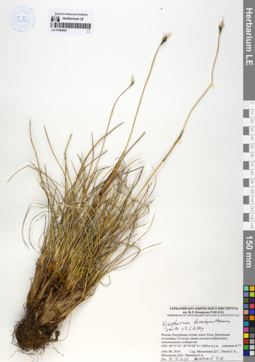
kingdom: Plantae
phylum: Tracheophyta
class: Liliopsida
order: Poales
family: Cyperaceae
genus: Eriophorum
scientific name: Eriophorum brachyantherum
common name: Closed-sheathed cottongrass
